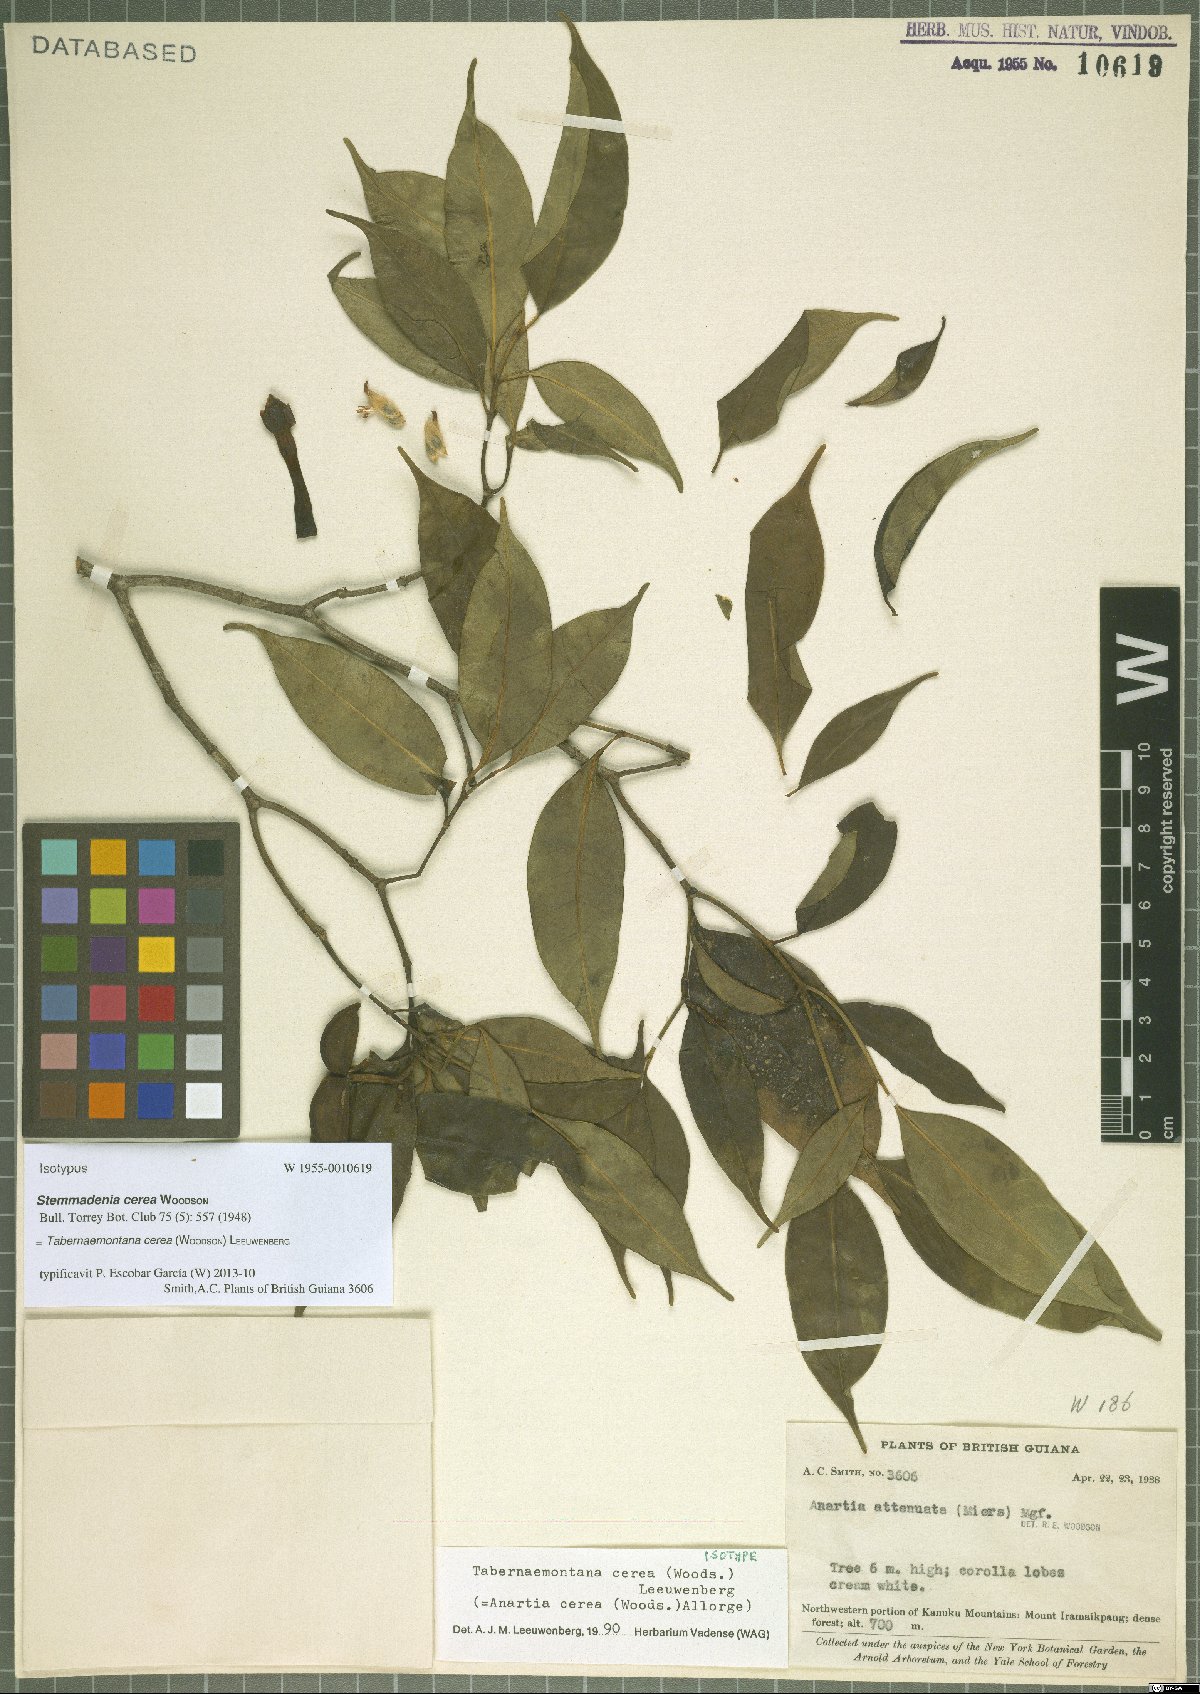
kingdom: Plantae
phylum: Tracheophyta
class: Magnoliopsida
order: Gentianales
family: Apocynaceae
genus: Tabernaemontana
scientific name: Tabernaemontana cerea
